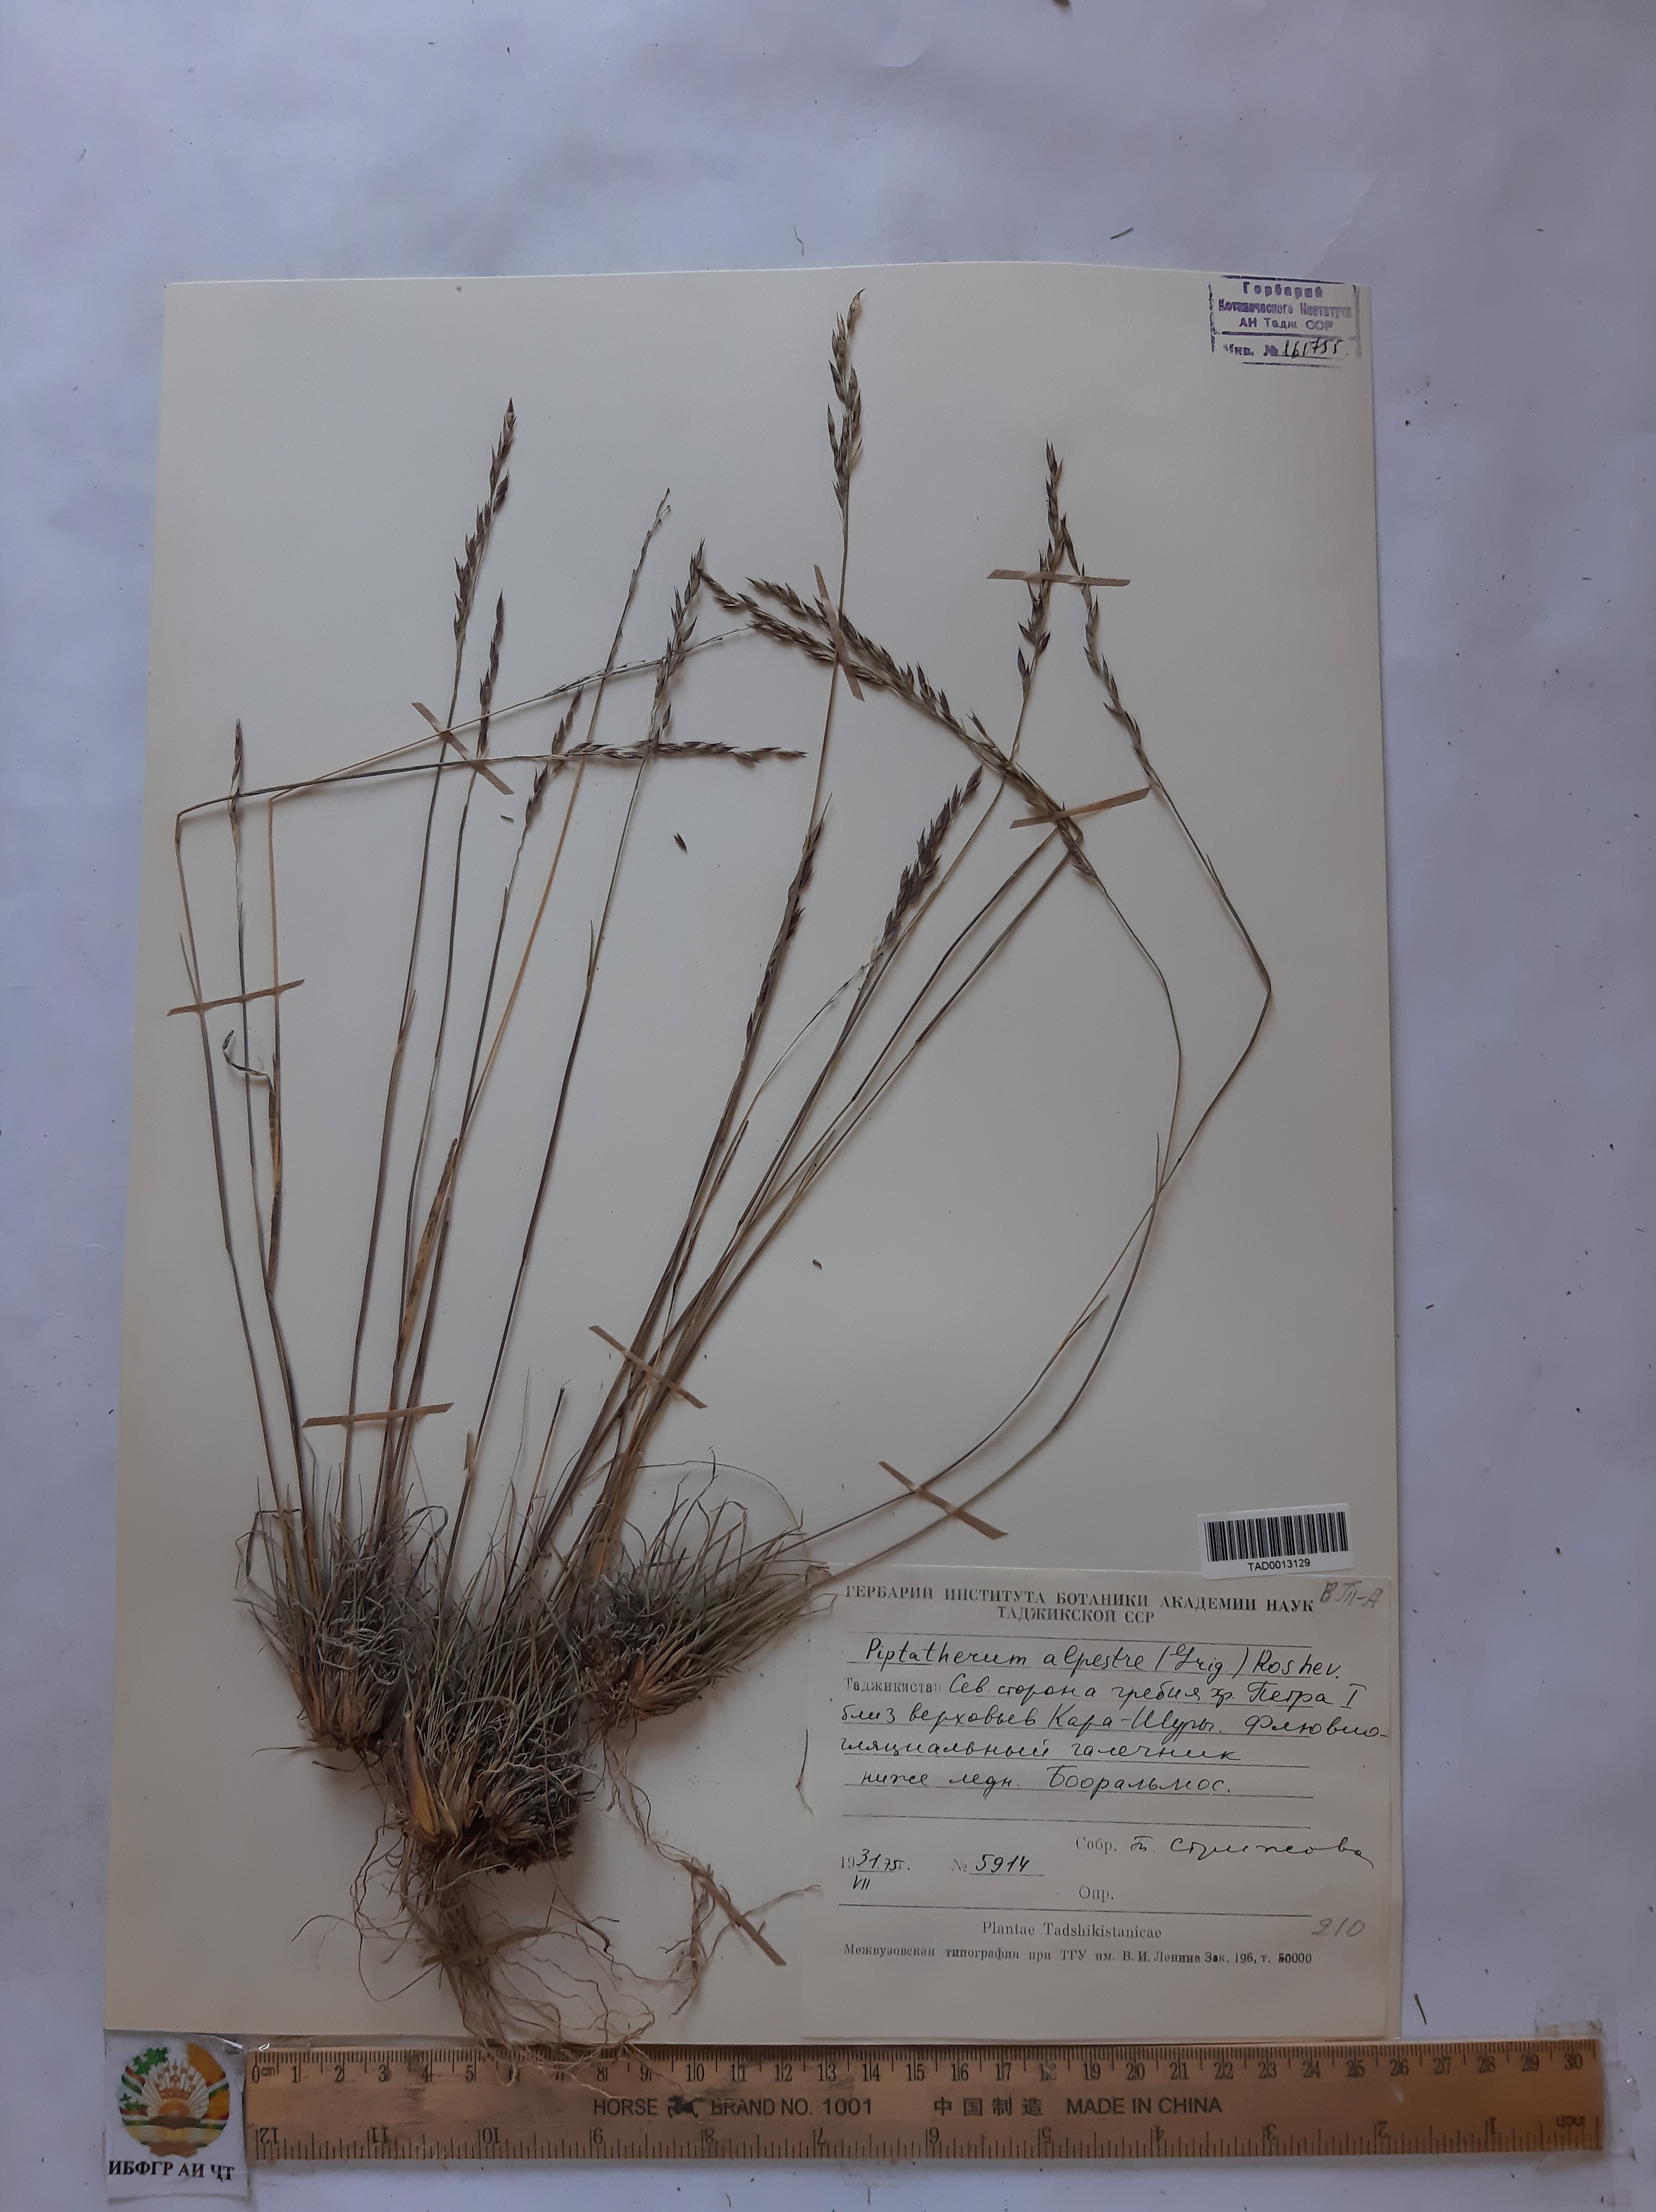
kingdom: Plantae
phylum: Tracheophyta
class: Liliopsida
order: Poales
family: Poaceae
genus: Piptatherum
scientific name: Piptatherum alpestre
